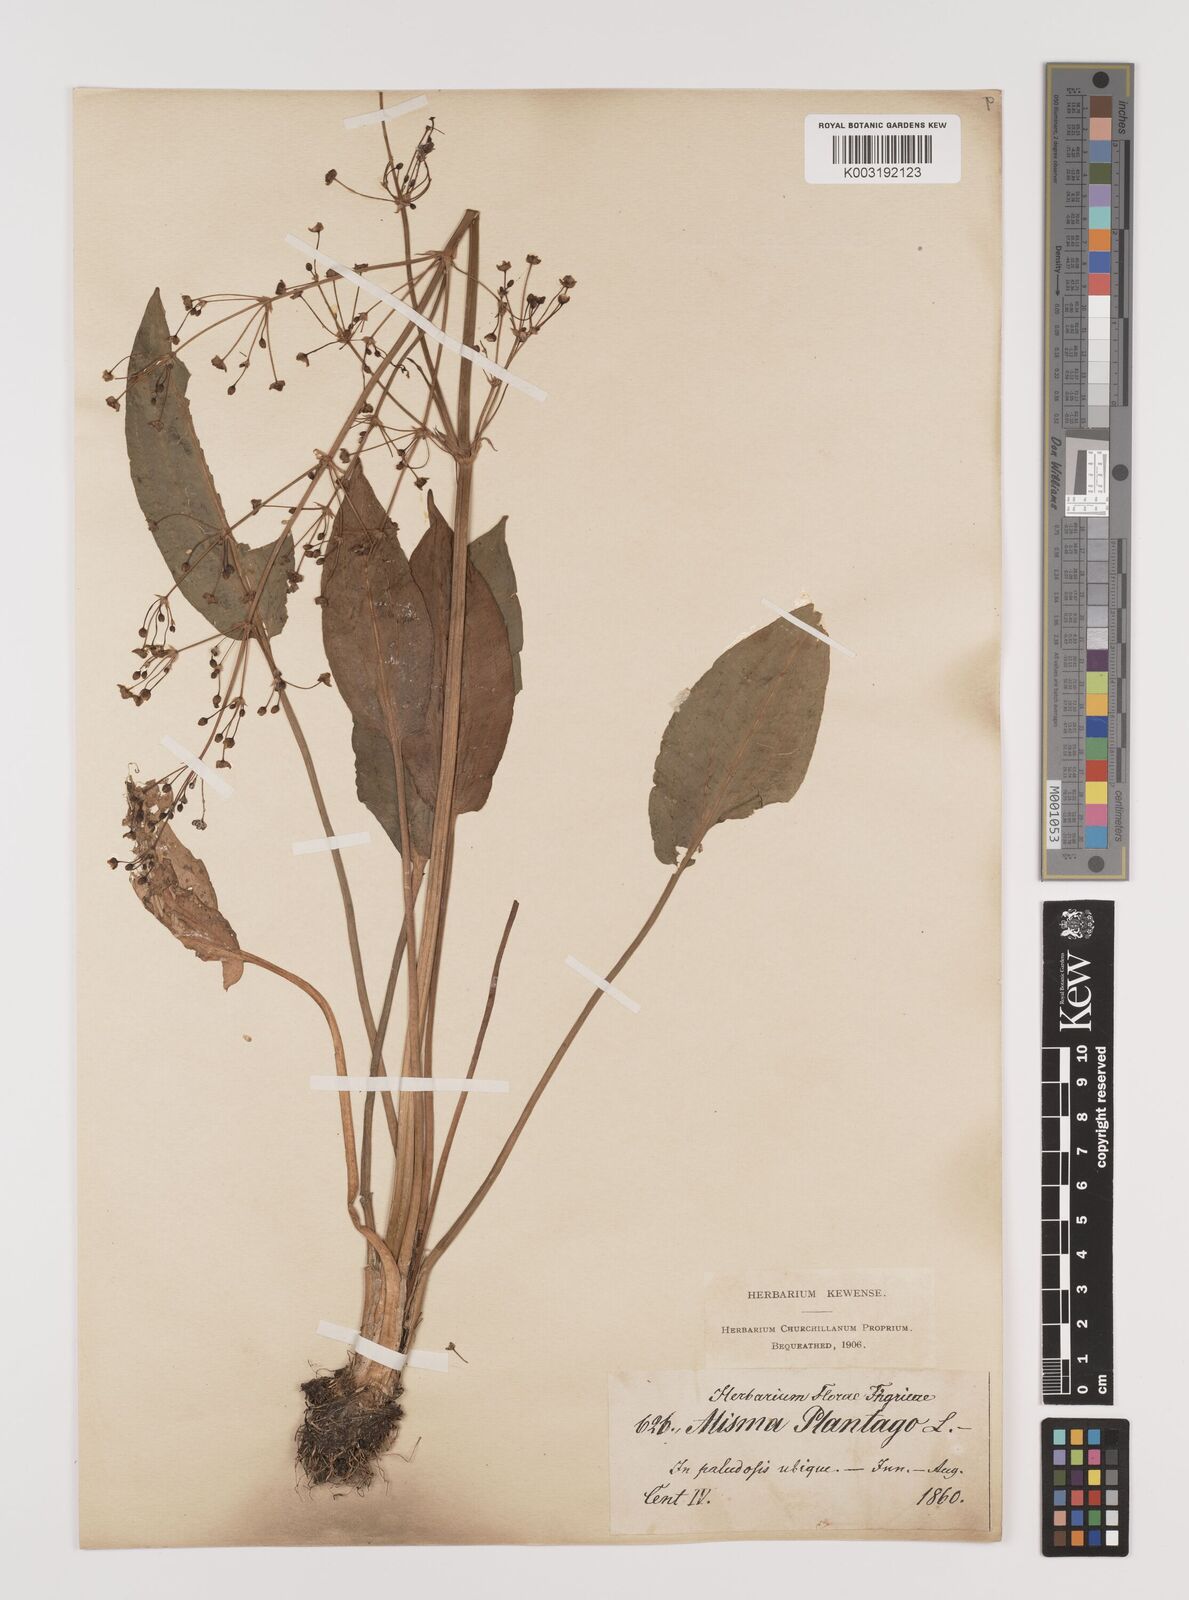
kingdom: Plantae
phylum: Tracheophyta
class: Liliopsida
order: Alismatales
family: Alismataceae
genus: Alisma
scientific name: Alisma plantago-aquatica
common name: Water-plantain
